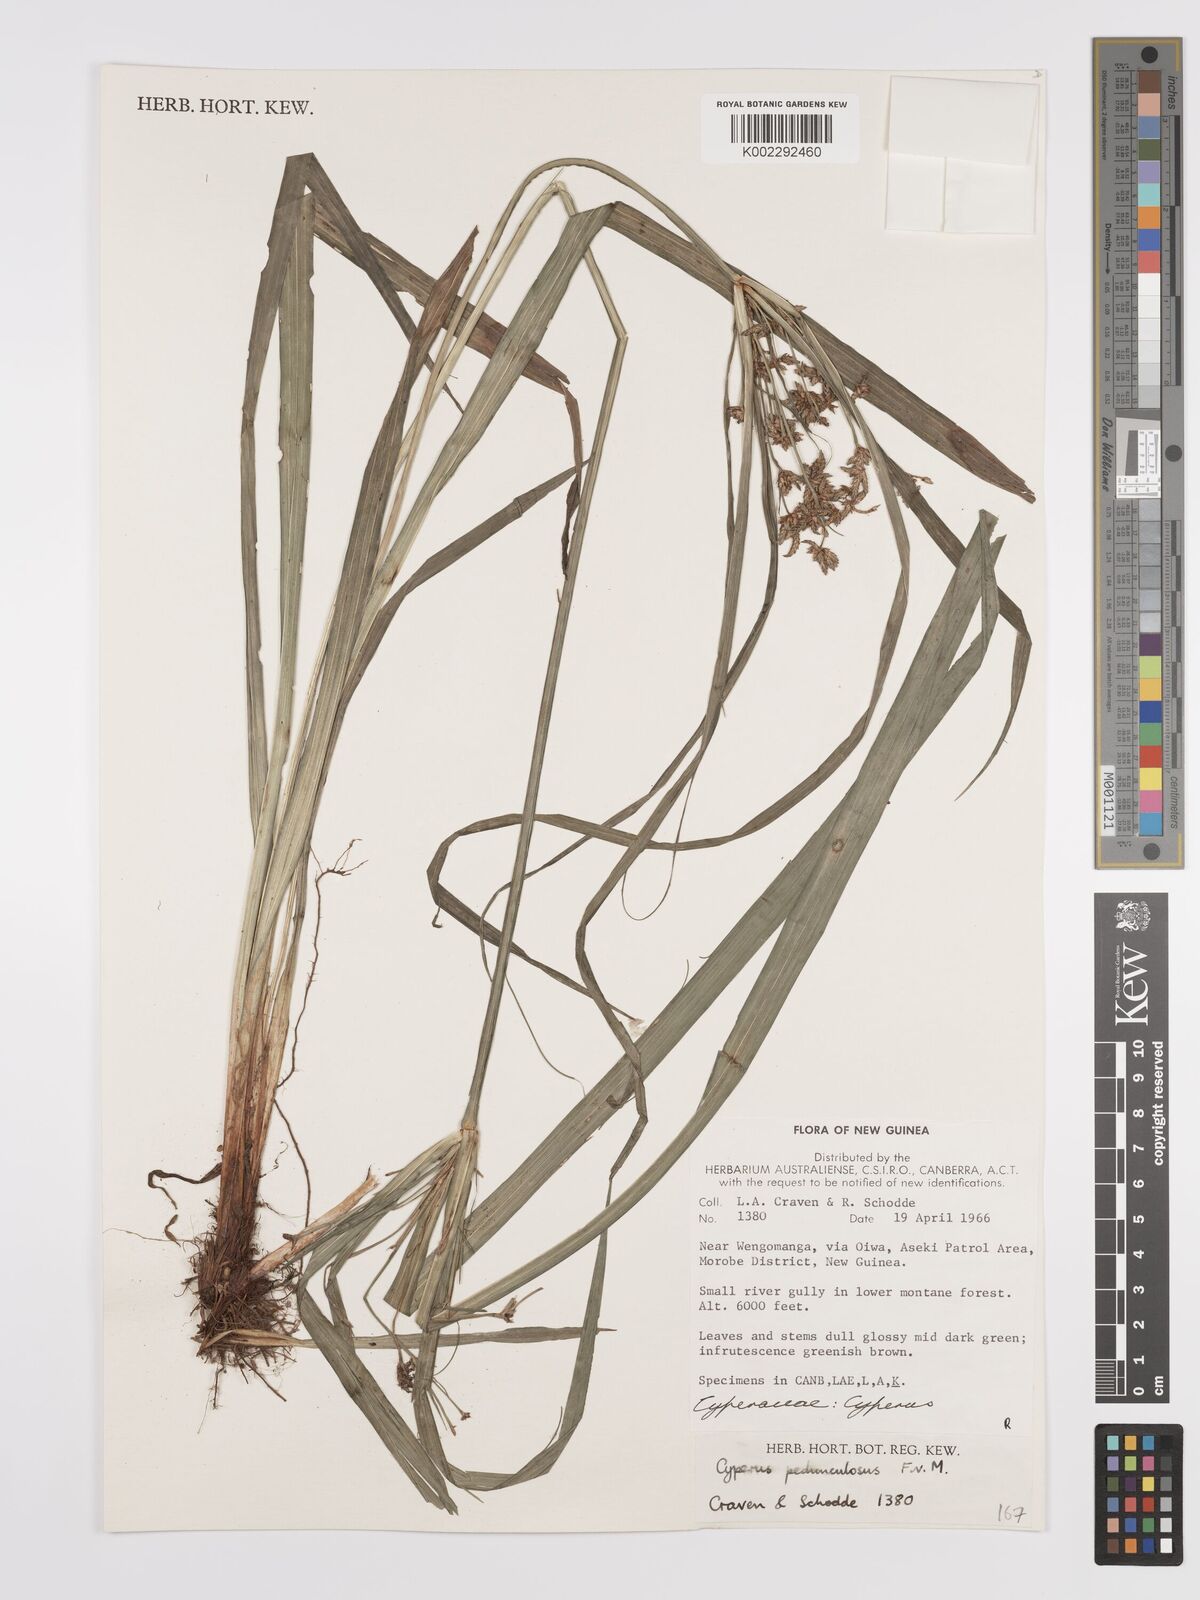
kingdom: Plantae
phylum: Tracheophyta
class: Liliopsida
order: Poales
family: Cyperaceae
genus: Cyperus
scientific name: Cyperus pedunculosus
